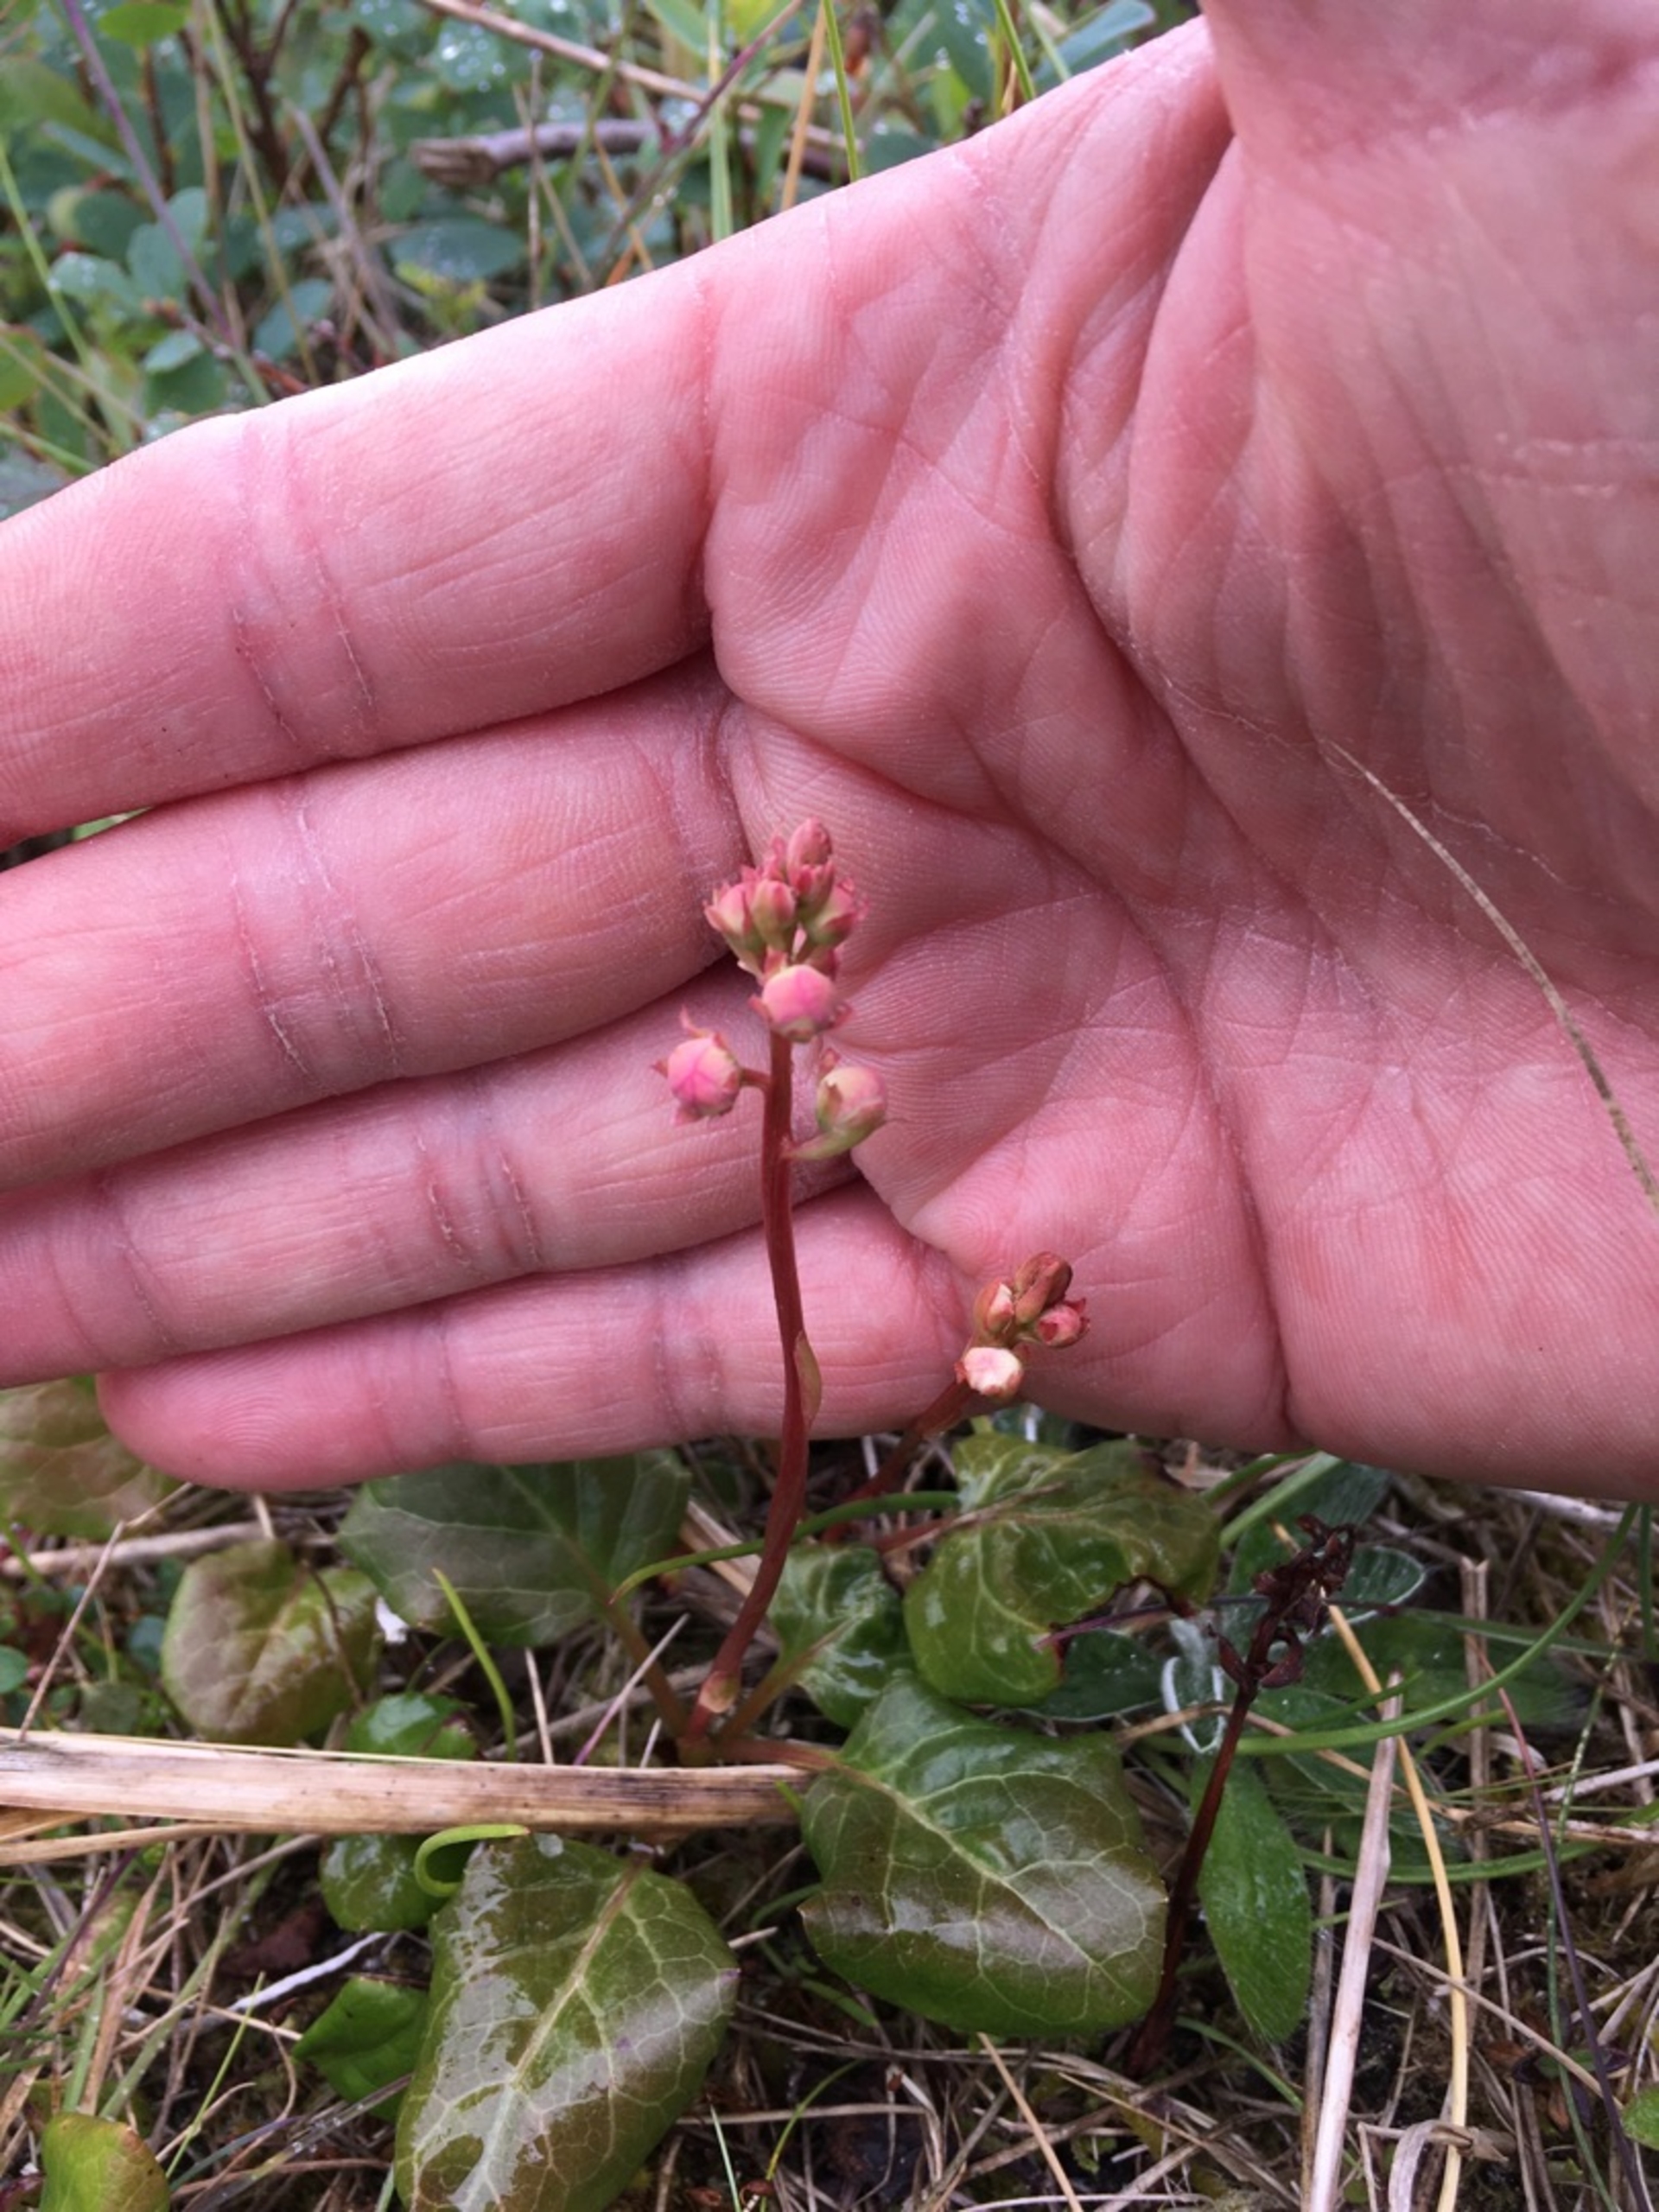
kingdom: Plantae
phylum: Tracheophyta
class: Magnoliopsida
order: Ericales
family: Ericaceae
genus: Pyrola
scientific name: Pyrola rotundifolia
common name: Mose-vintergrøn
